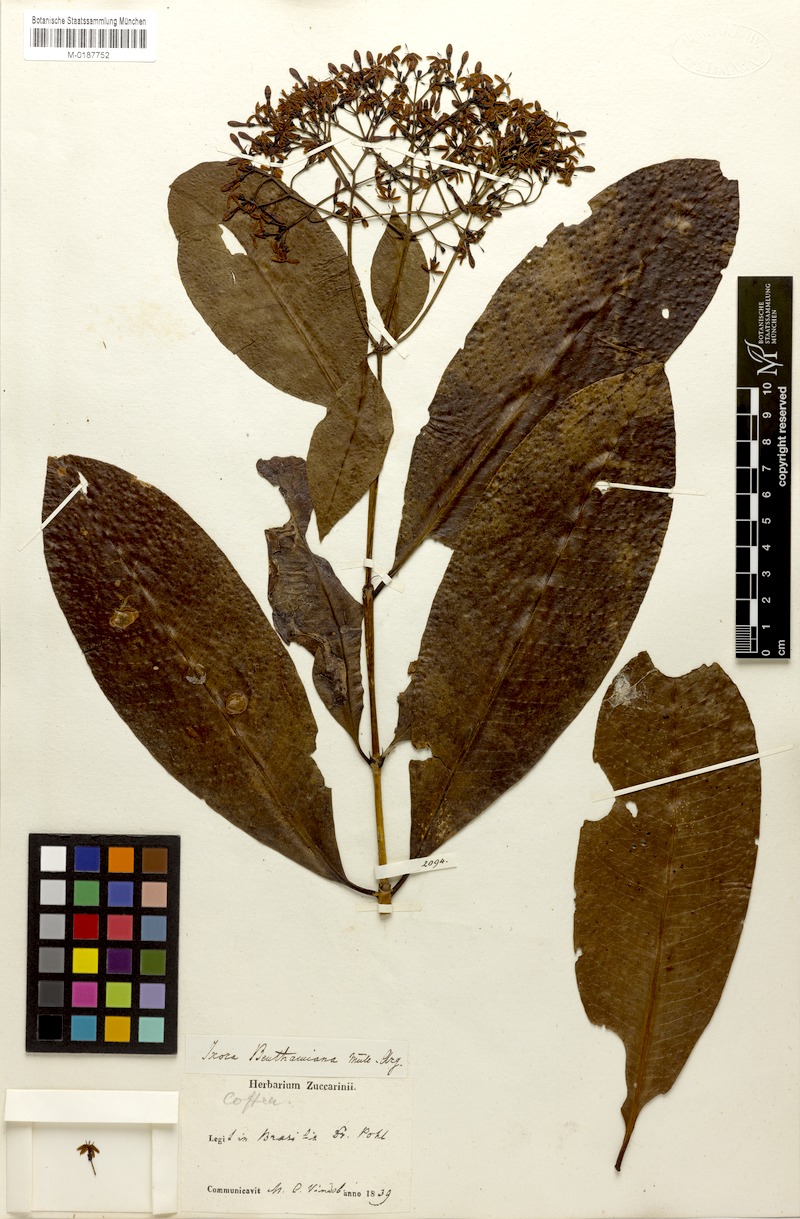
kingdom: Plantae
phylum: Tracheophyta
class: Magnoliopsida
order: Gentianales
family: Rubiaceae
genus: Ixora
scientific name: Ixora syringiflora
